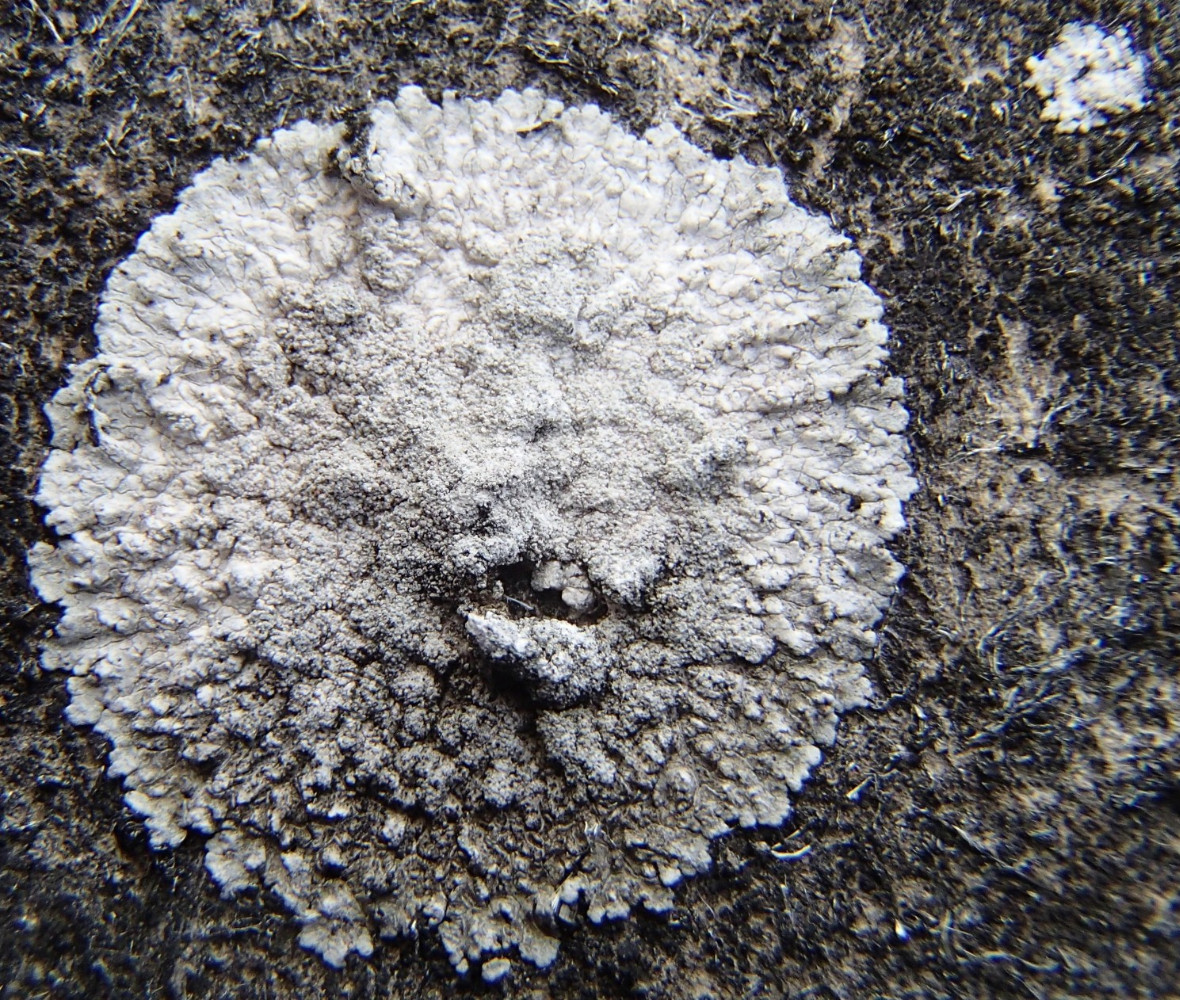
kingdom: Fungi
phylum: Ascomycota
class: Lecanoromycetes
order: Teloschistales
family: Teloschistaceae
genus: Kuettlingeria
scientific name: Kuettlingeria teicholyta
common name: grå orangelav
